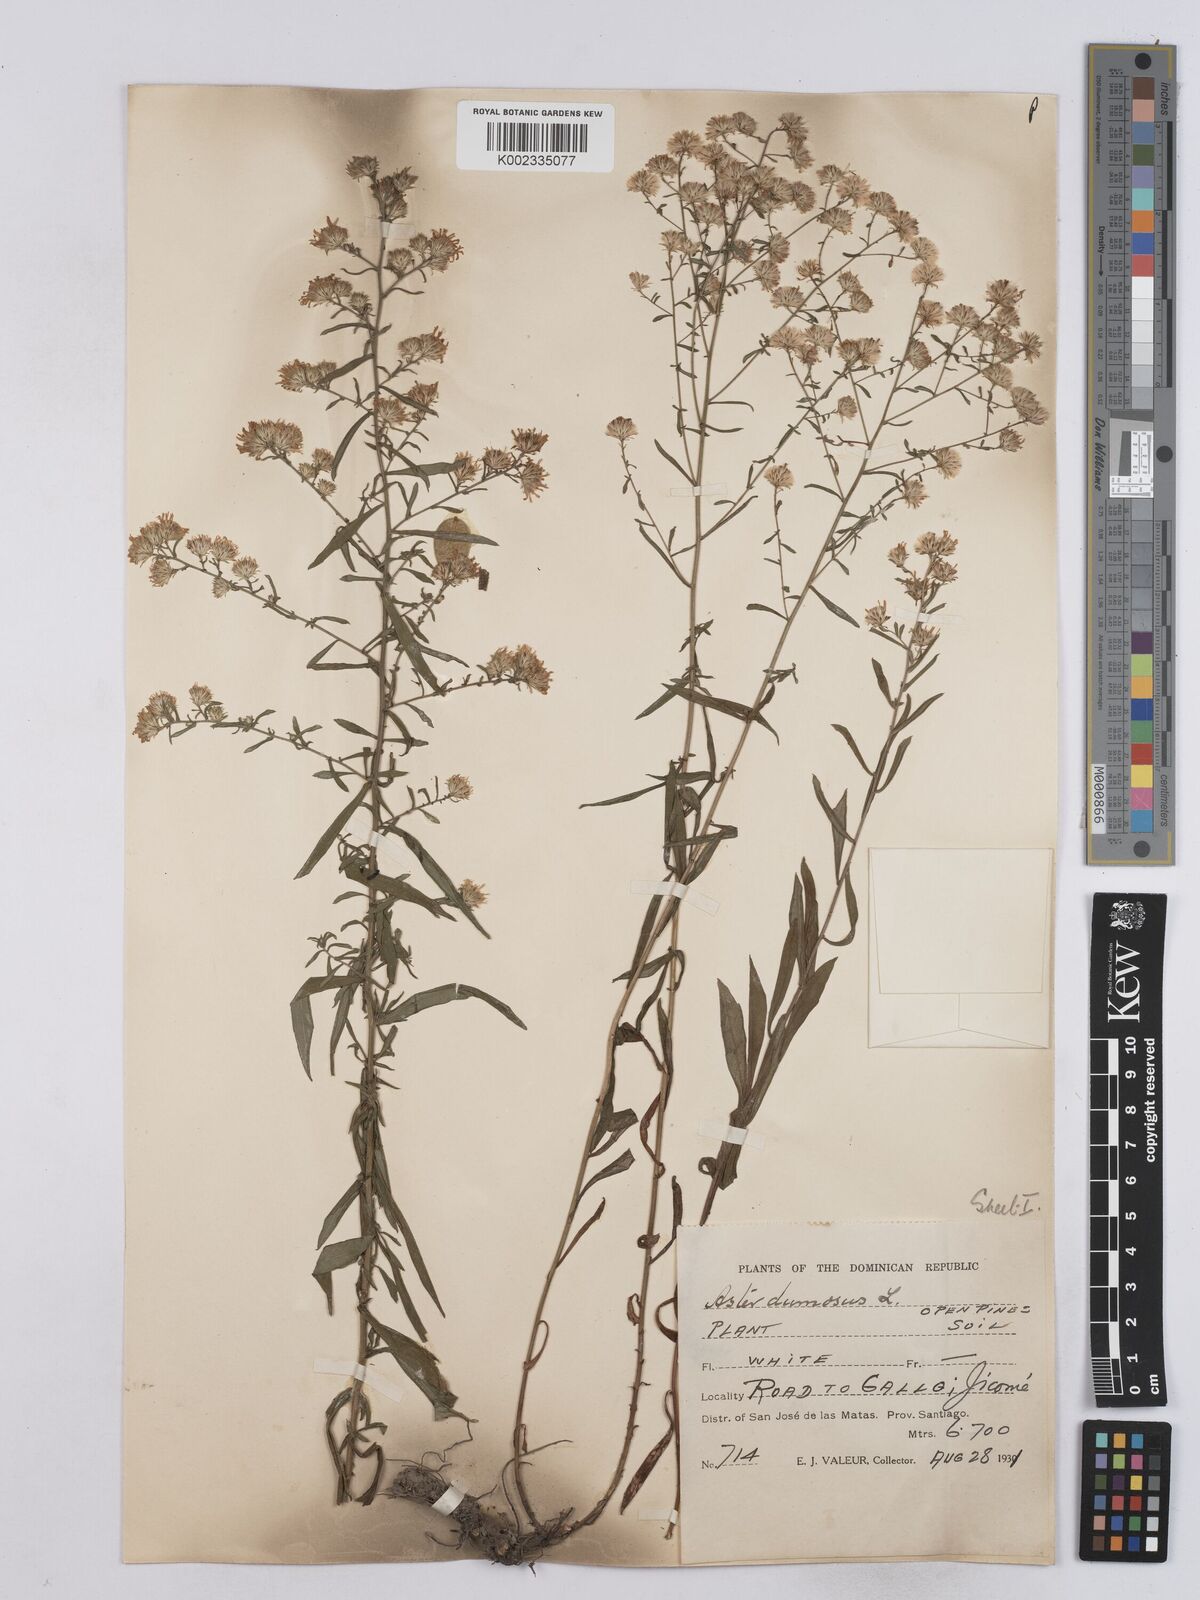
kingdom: Plantae
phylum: Tracheophyta
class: Magnoliopsida
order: Asterales
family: Asteraceae
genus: Symphyotrichum
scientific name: Symphyotrichum dumosum
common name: Bushy aster
